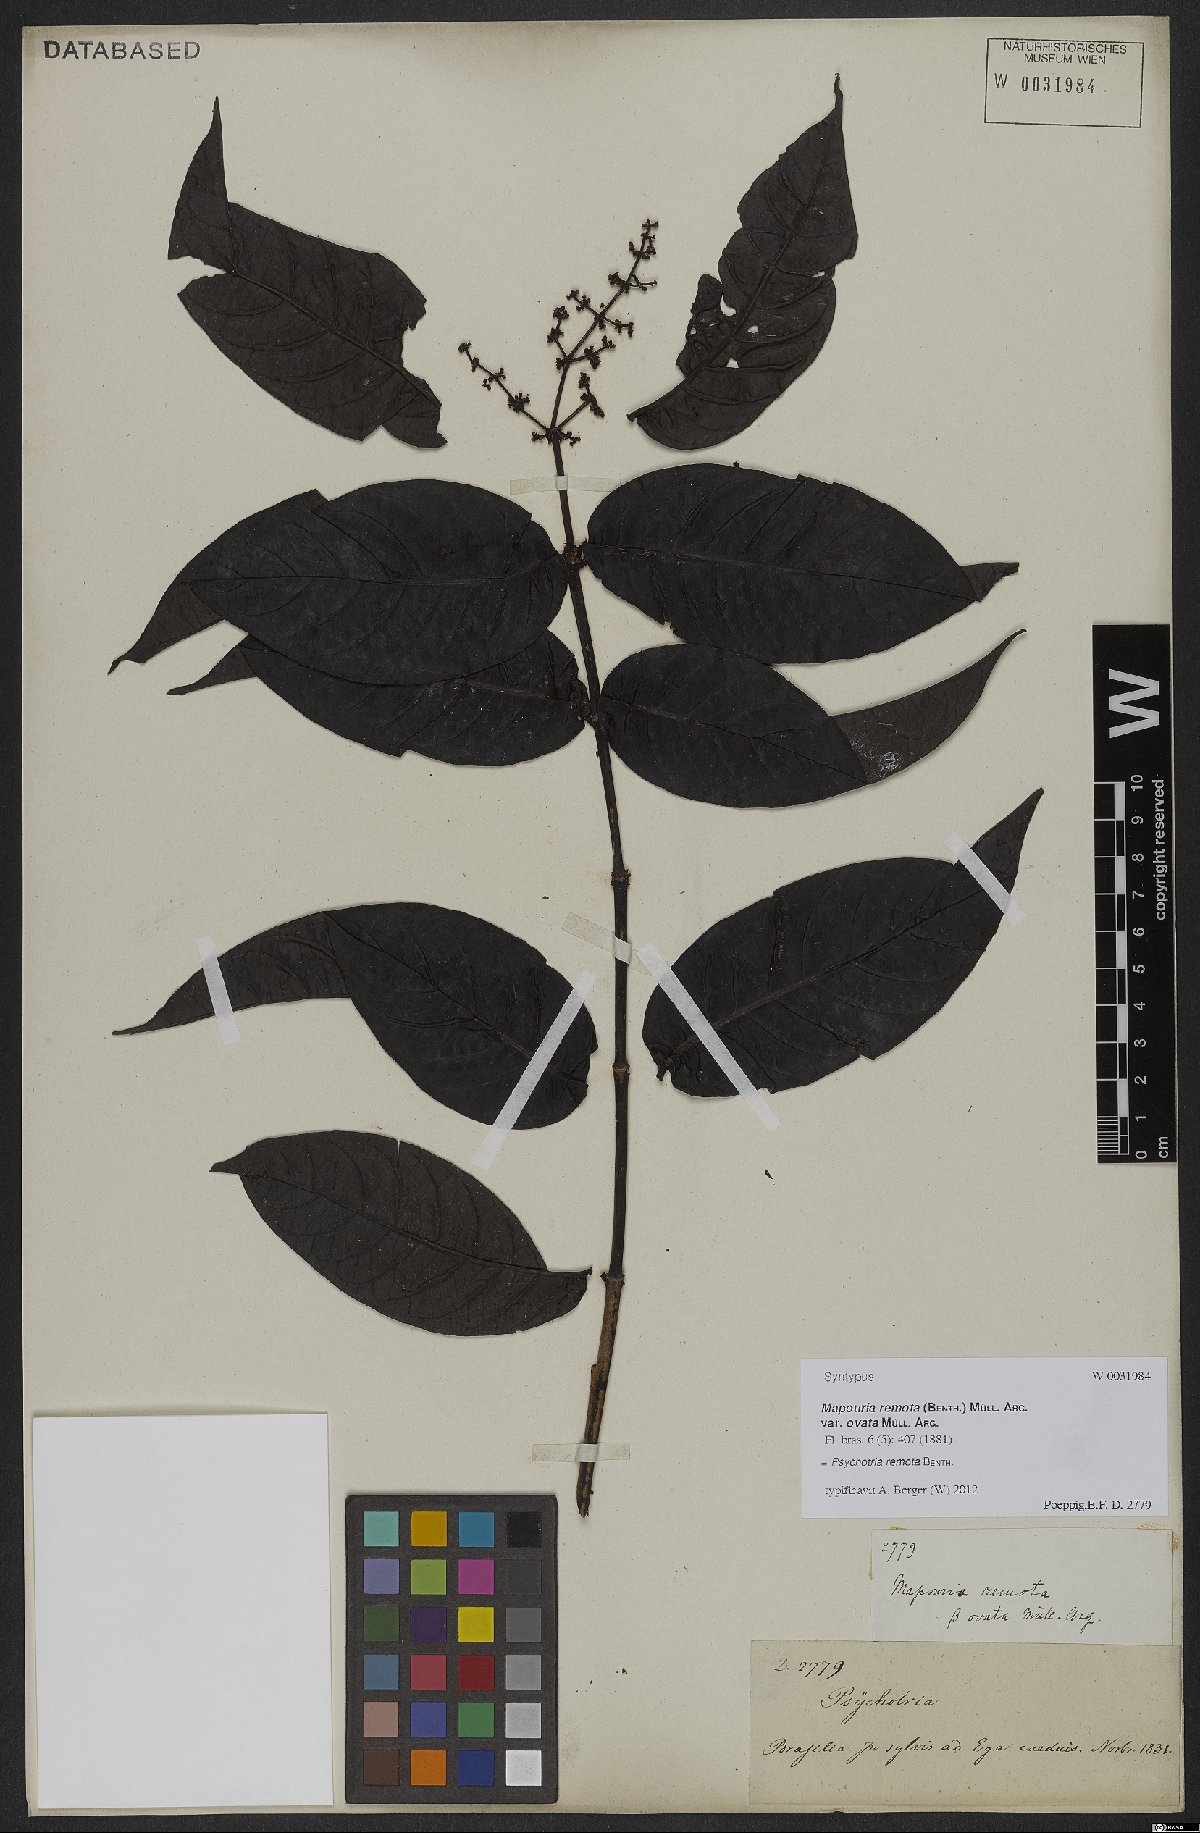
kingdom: Plantae
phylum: Tracheophyta
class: Magnoliopsida
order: Gentianales
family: Rubiaceae
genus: Psychotria
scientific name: Psychotria remota
